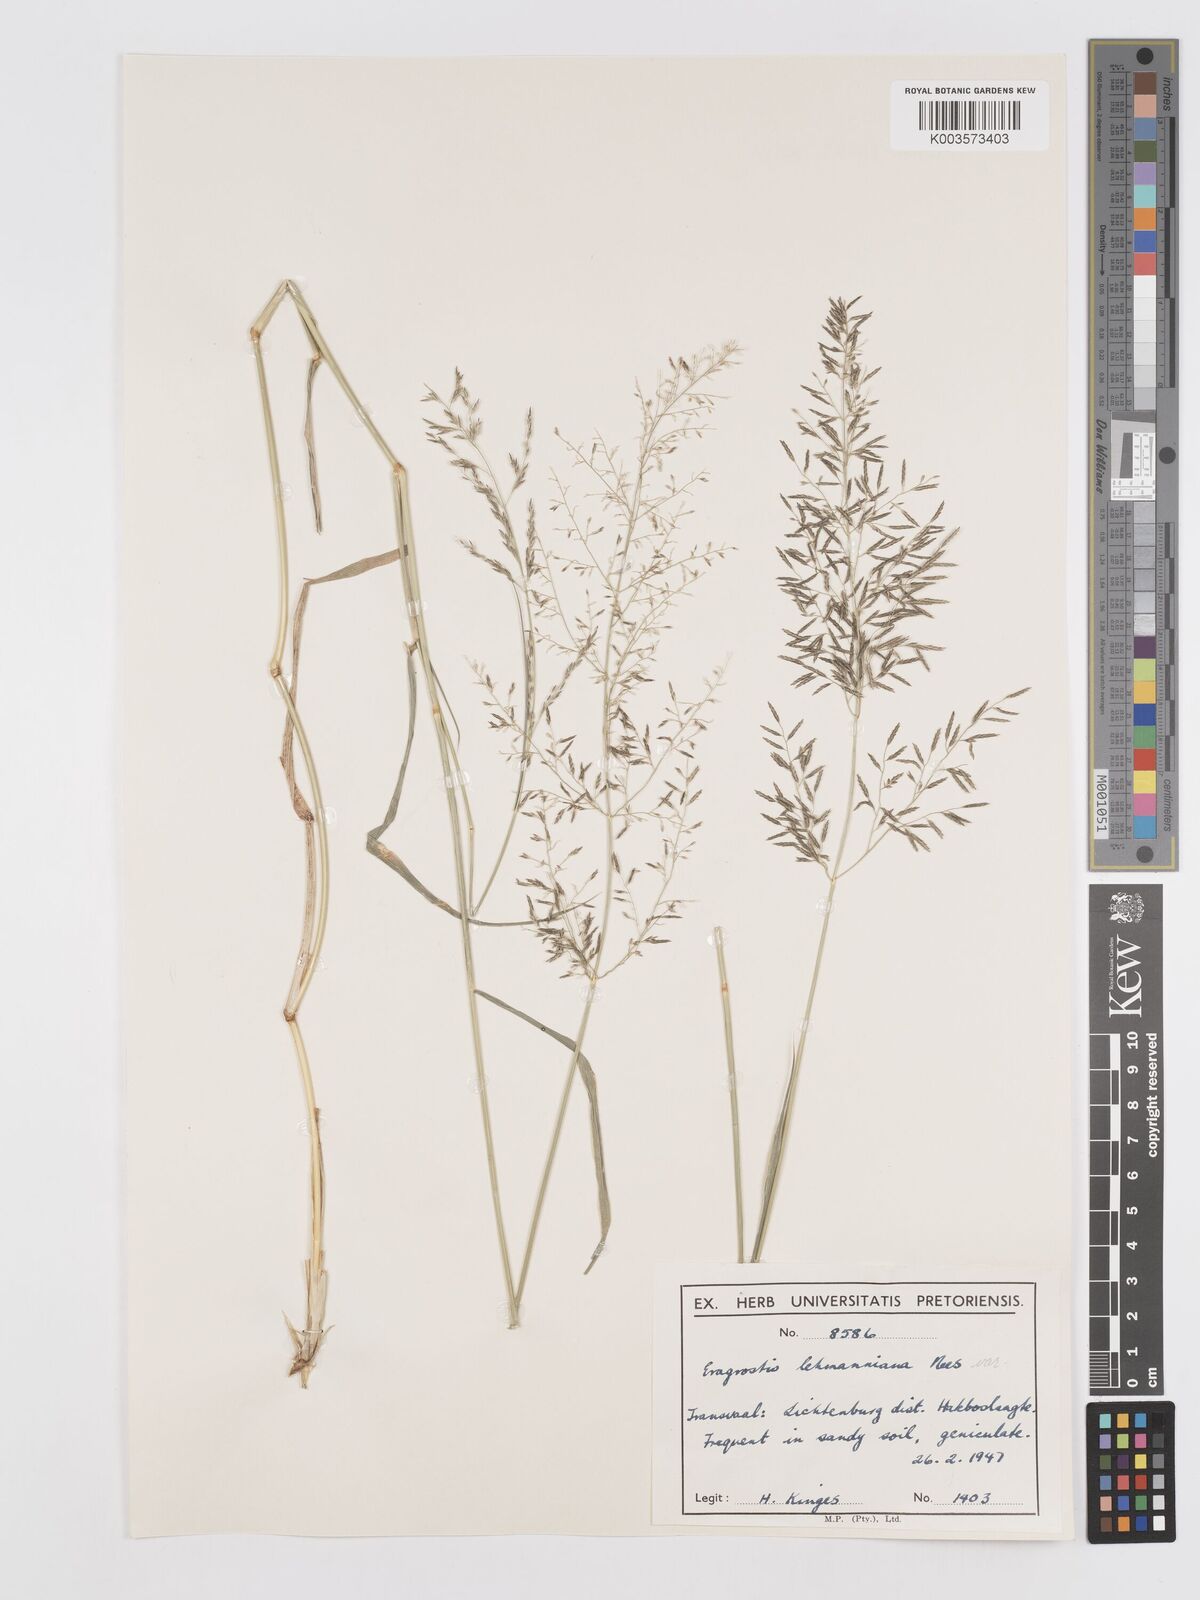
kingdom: Plantae
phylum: Tracheophyta
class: Liliopsida
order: Poales
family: Poaceae
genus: Eragrostis
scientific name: Eragrostis lehmanniana
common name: Lehmann lovegrass
